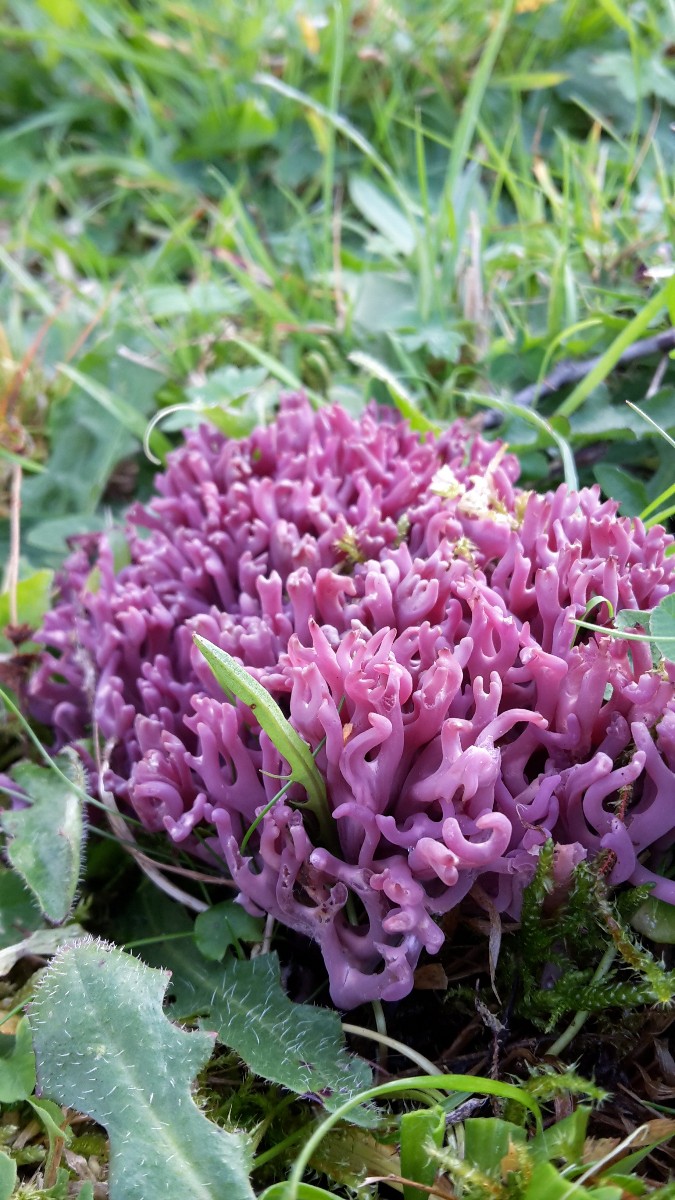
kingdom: Fungi
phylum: Basidiomycota
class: Agaricomycetes
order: Agaricales
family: Clavariaceae
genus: Clavaria
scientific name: Clavaria zollingeri
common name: purpur-køllesvamp
